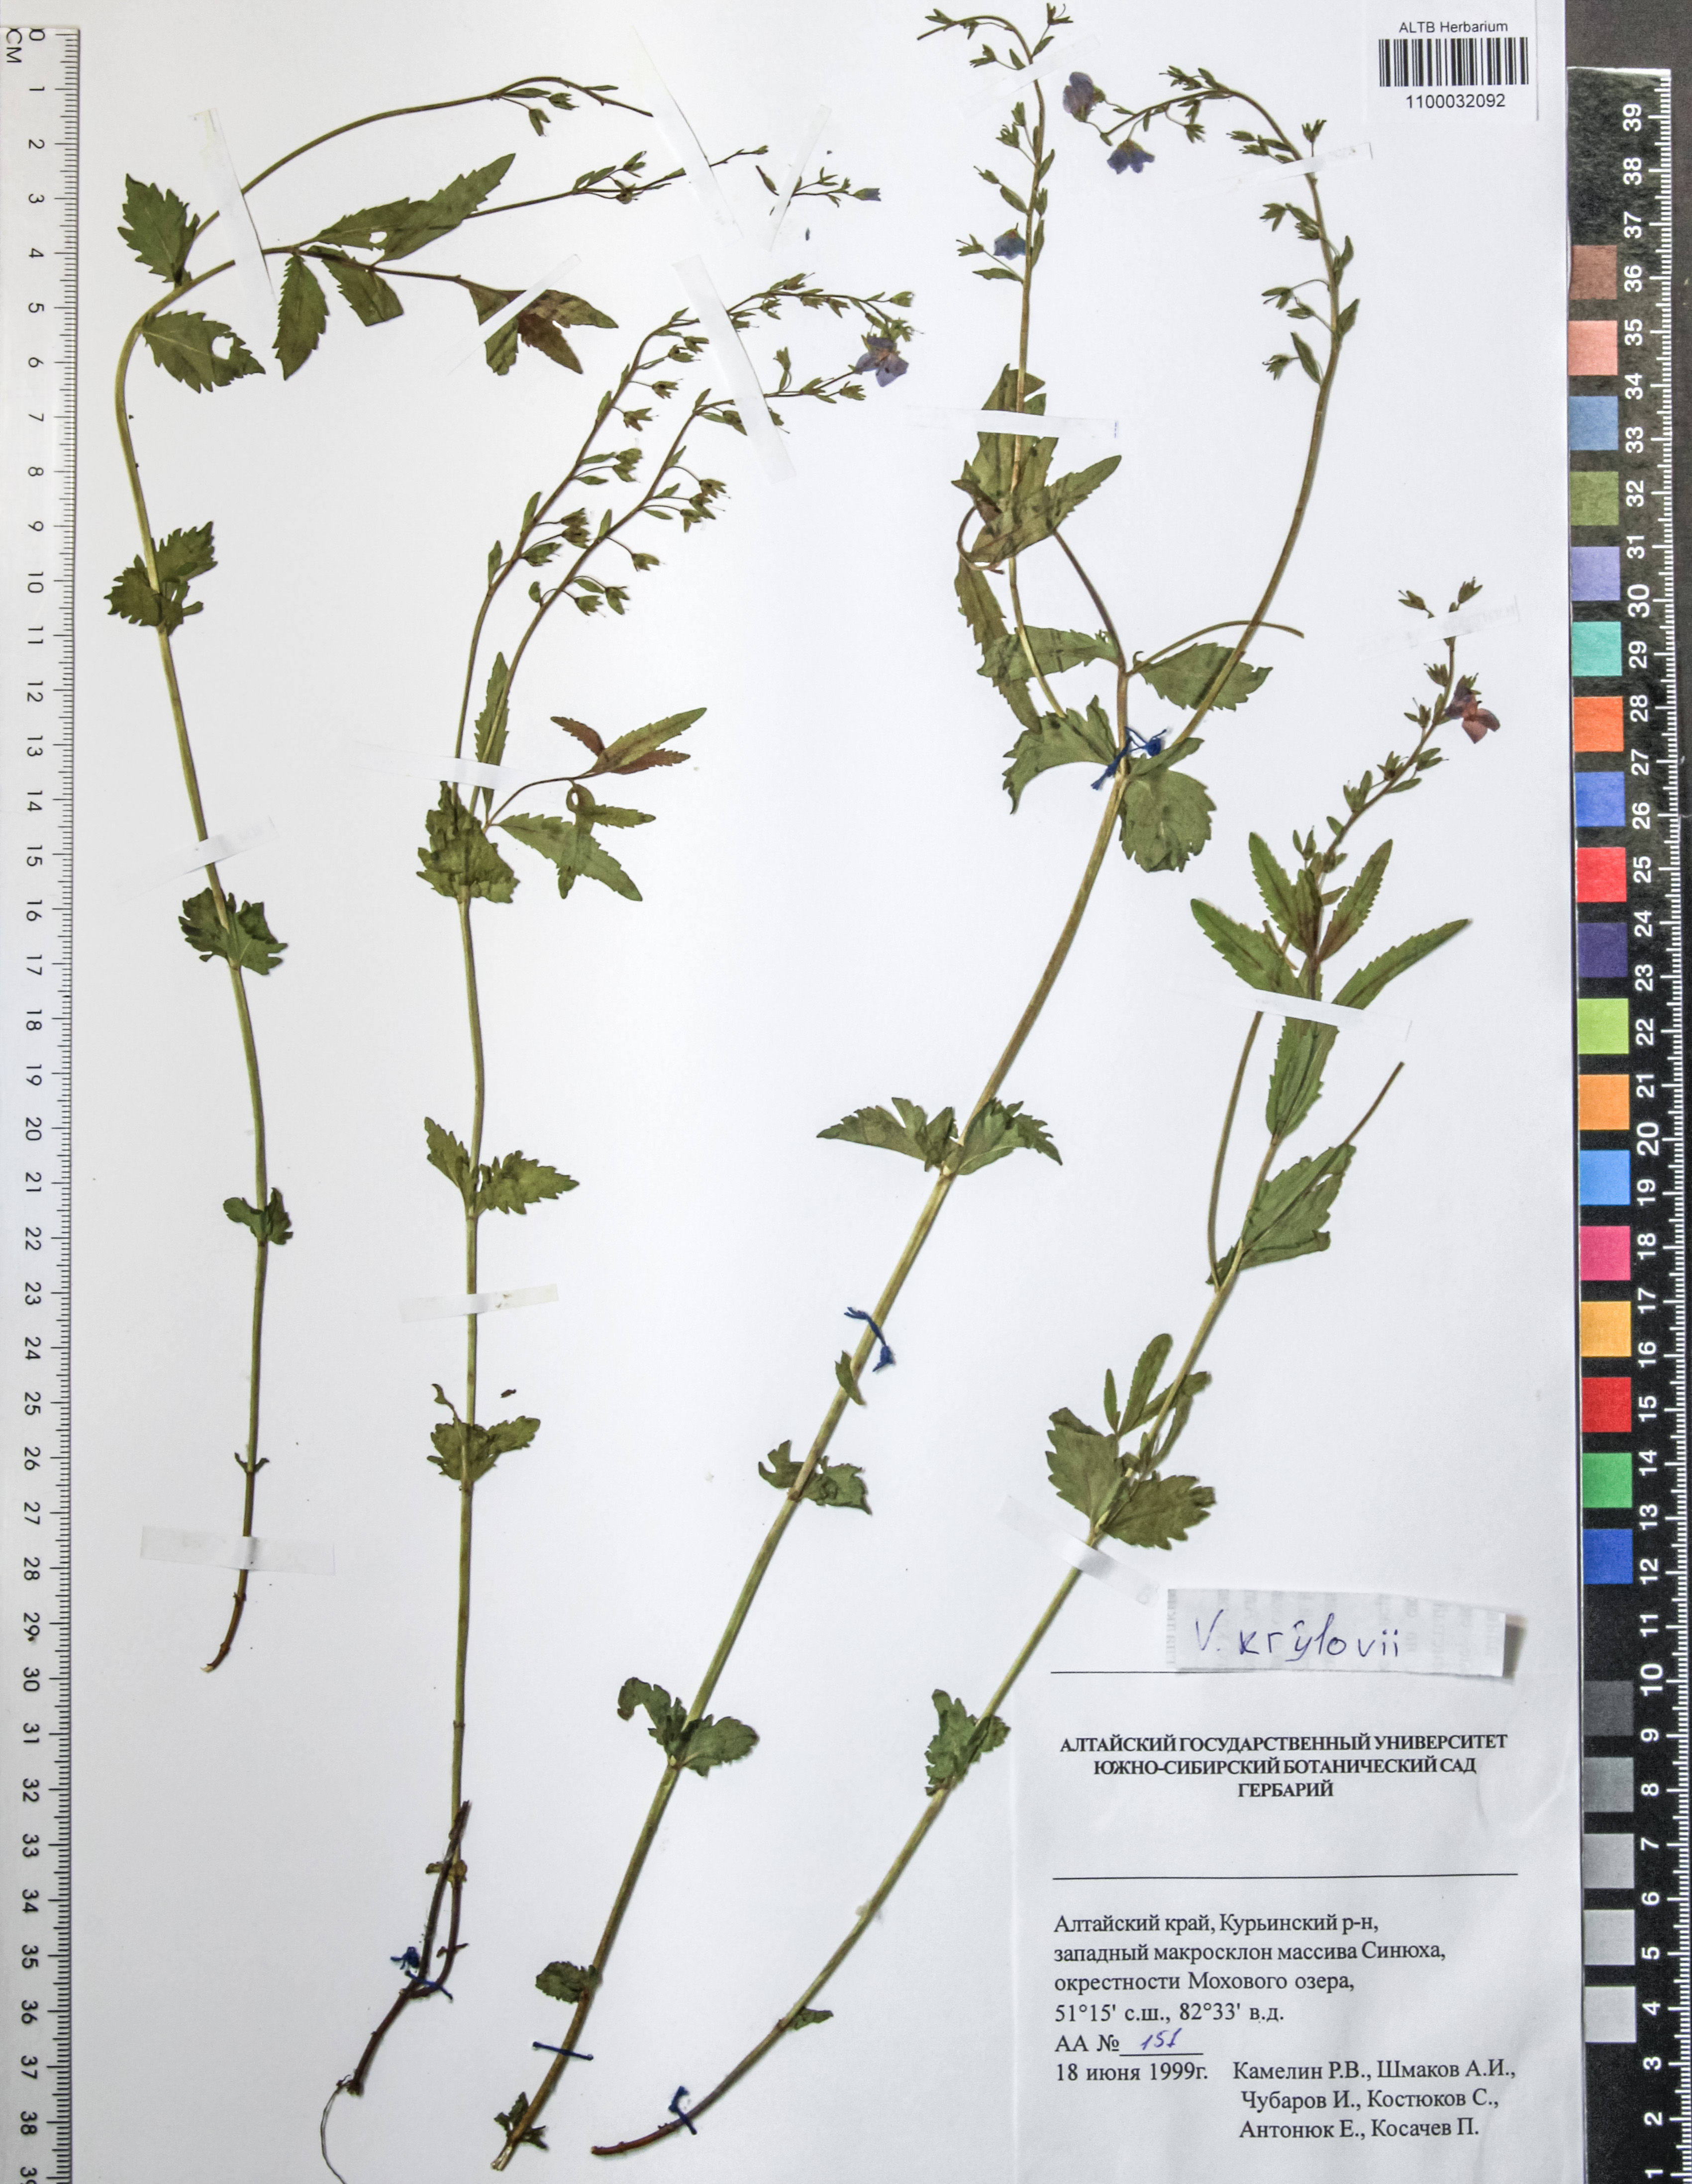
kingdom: Plantae
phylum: Tracheophyta
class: Magnoliopsida
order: Lamiales
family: Plantaginaceae
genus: Veronica
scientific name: Veronica krylovii
